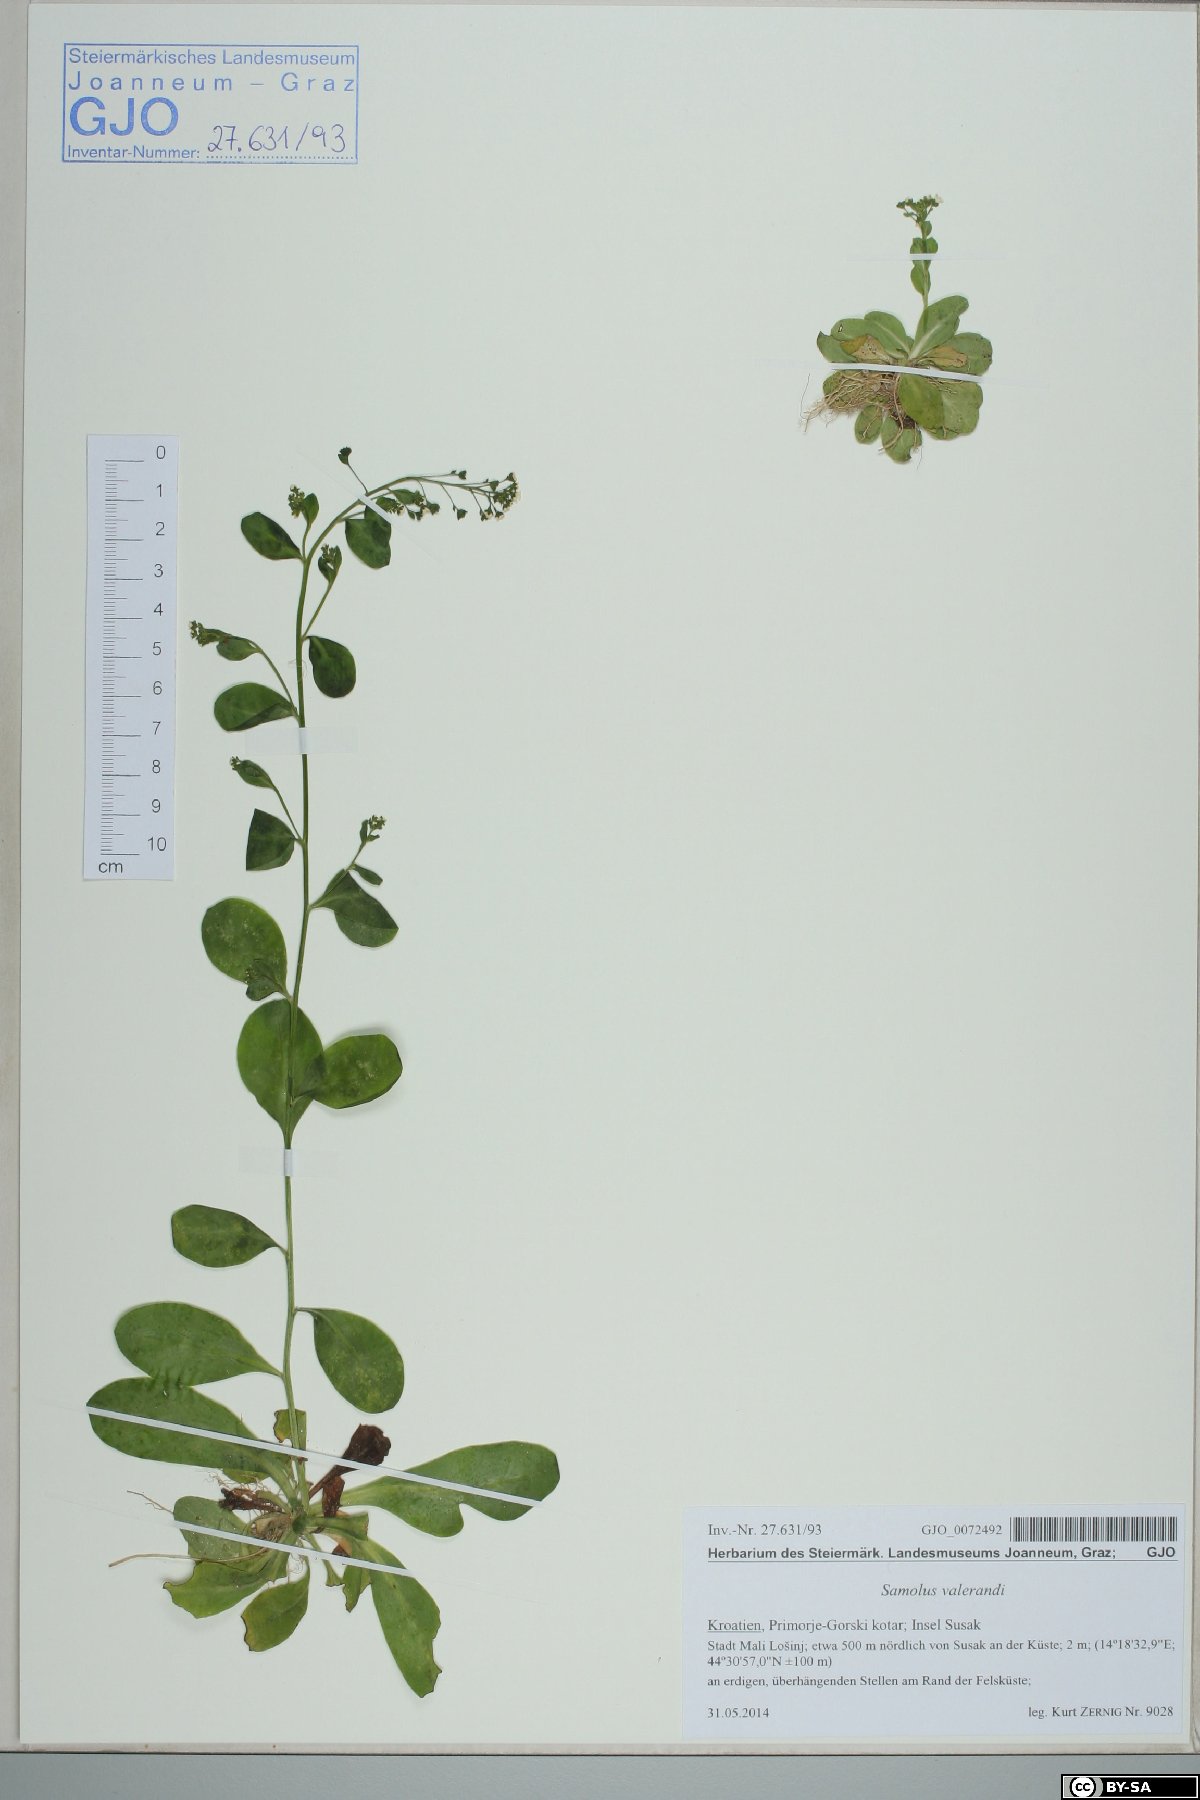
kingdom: Plantae
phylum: Tracheophyta
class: Magnoliopsida
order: Ericales
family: Primulaceae
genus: Samolus
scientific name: Samolus valerandi
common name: Brookweed
